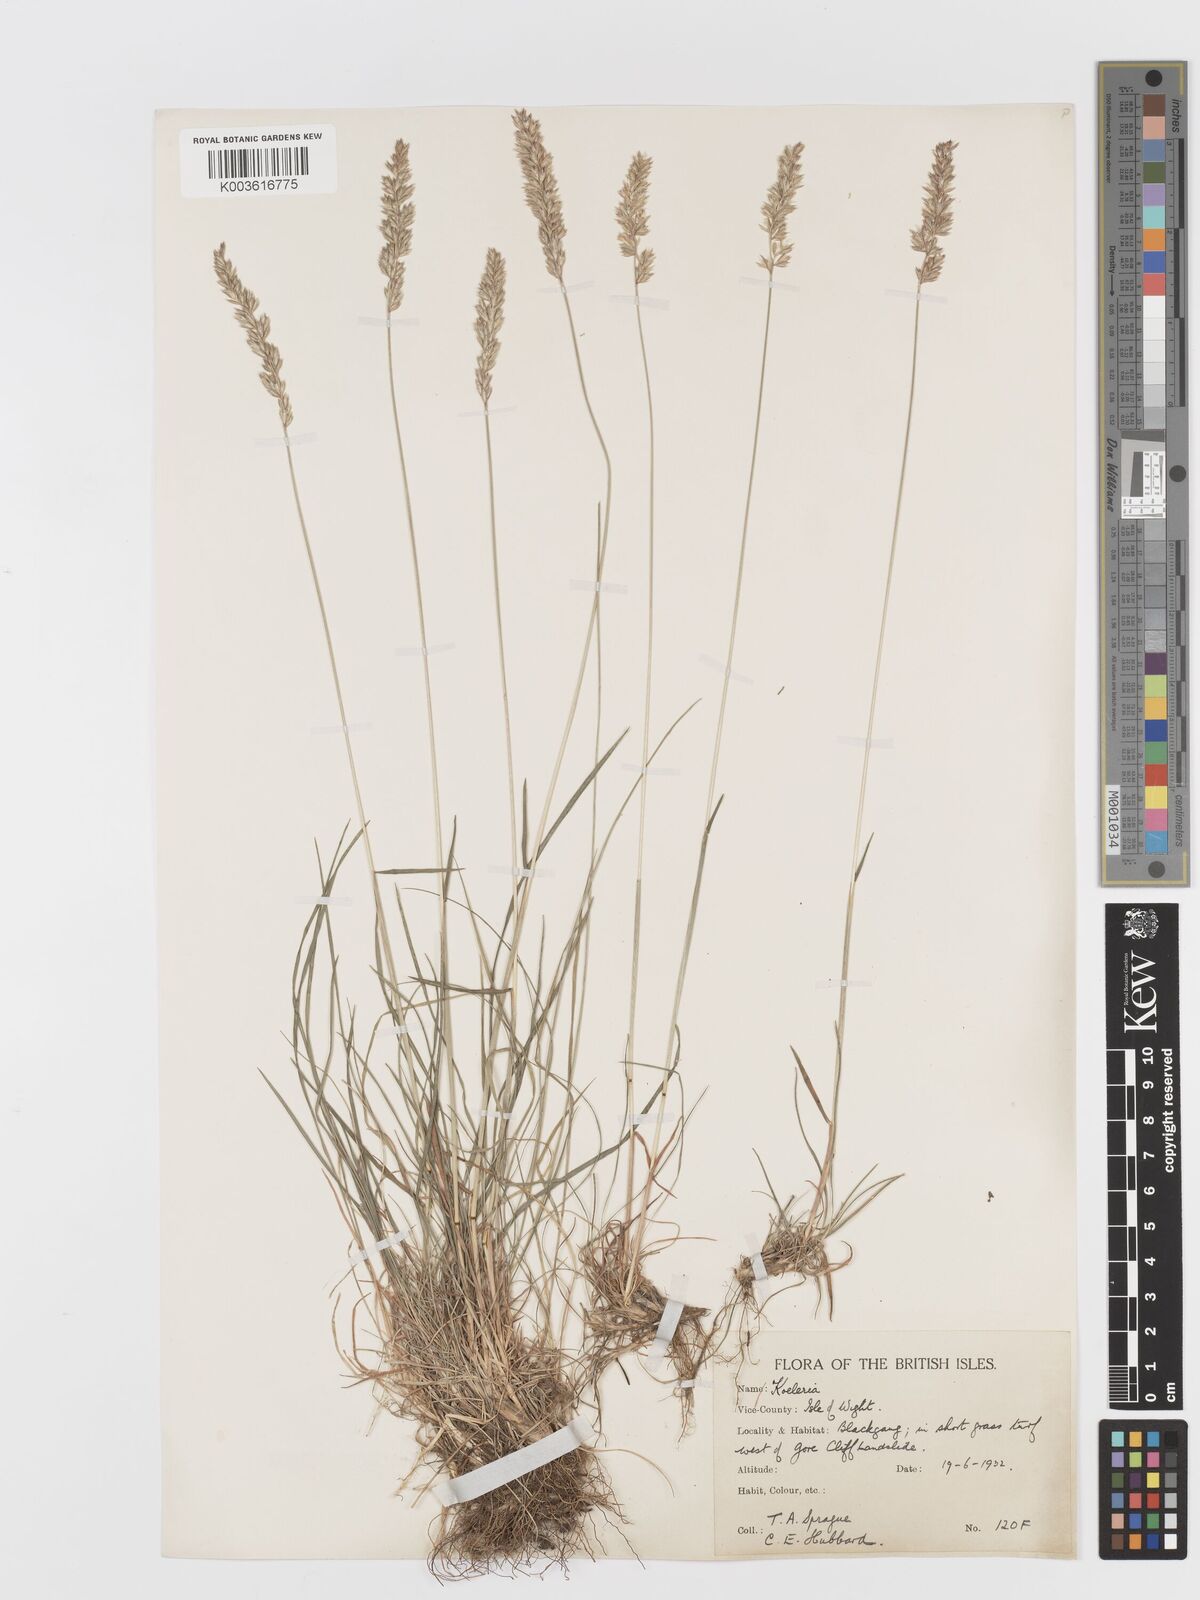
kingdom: Plantae
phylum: Tracheophyta
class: Liliopsida
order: Poales
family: Poaceae
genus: Koeleria
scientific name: Koeleria macrantha
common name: Crested hair-grass
